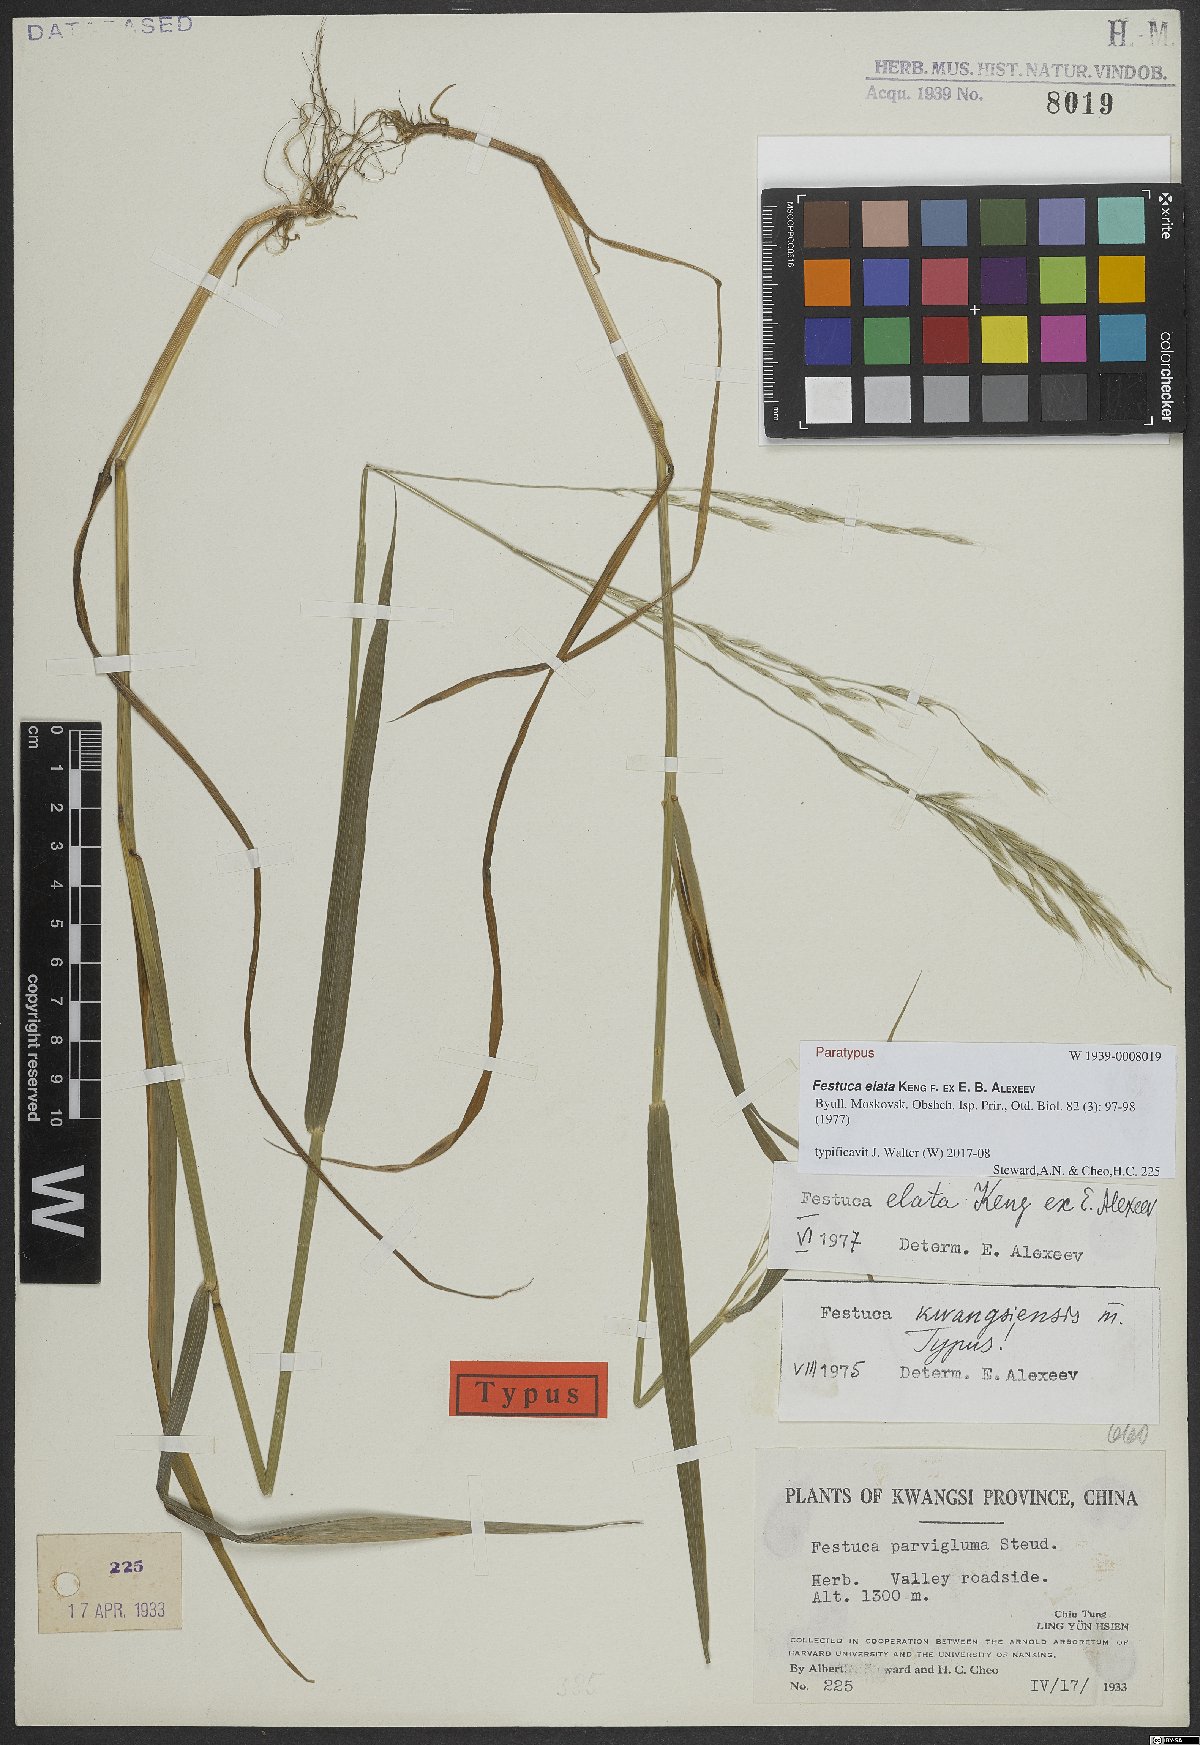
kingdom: Plantae
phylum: Tracheophyta
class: Liliopsida
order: Poales
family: Poaceae
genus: Festuca
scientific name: Festuca elata
